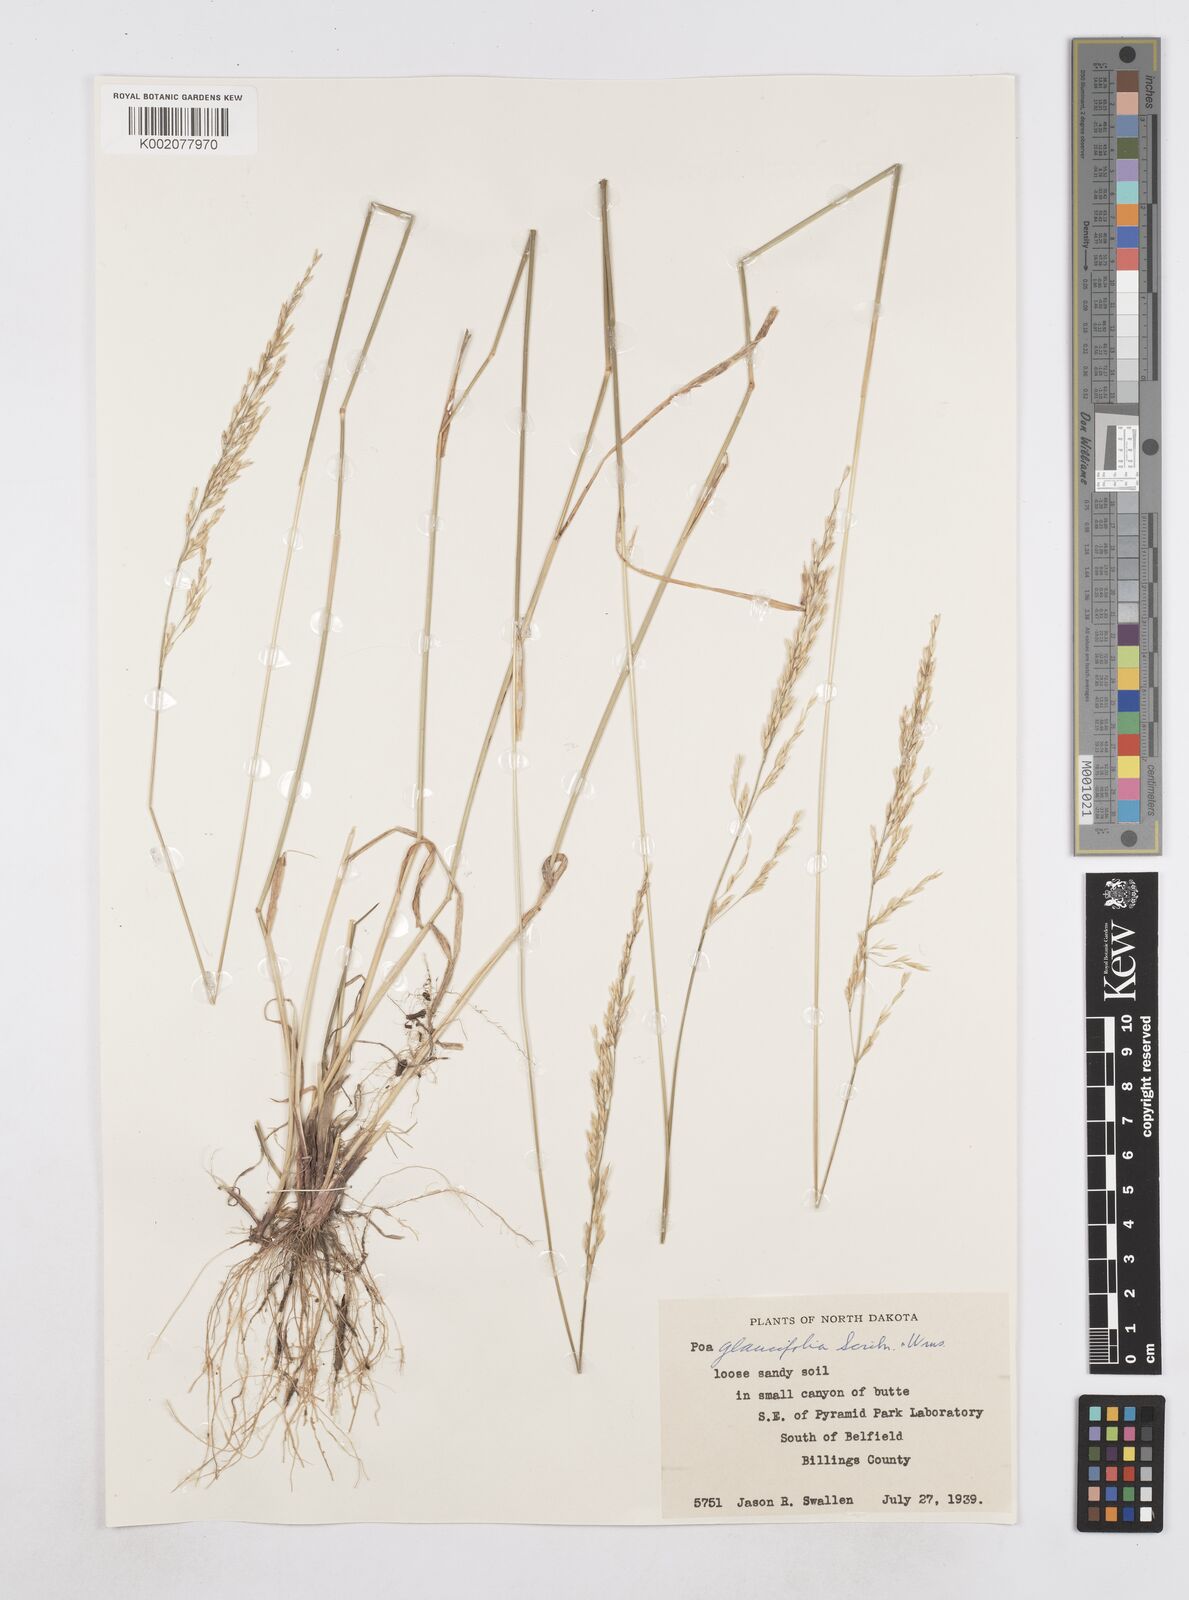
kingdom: Plantae
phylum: Tracheophyta
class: Liliopsida
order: Poales
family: Poaceae
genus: Poa
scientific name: Poa arida
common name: Plains bluegrass
